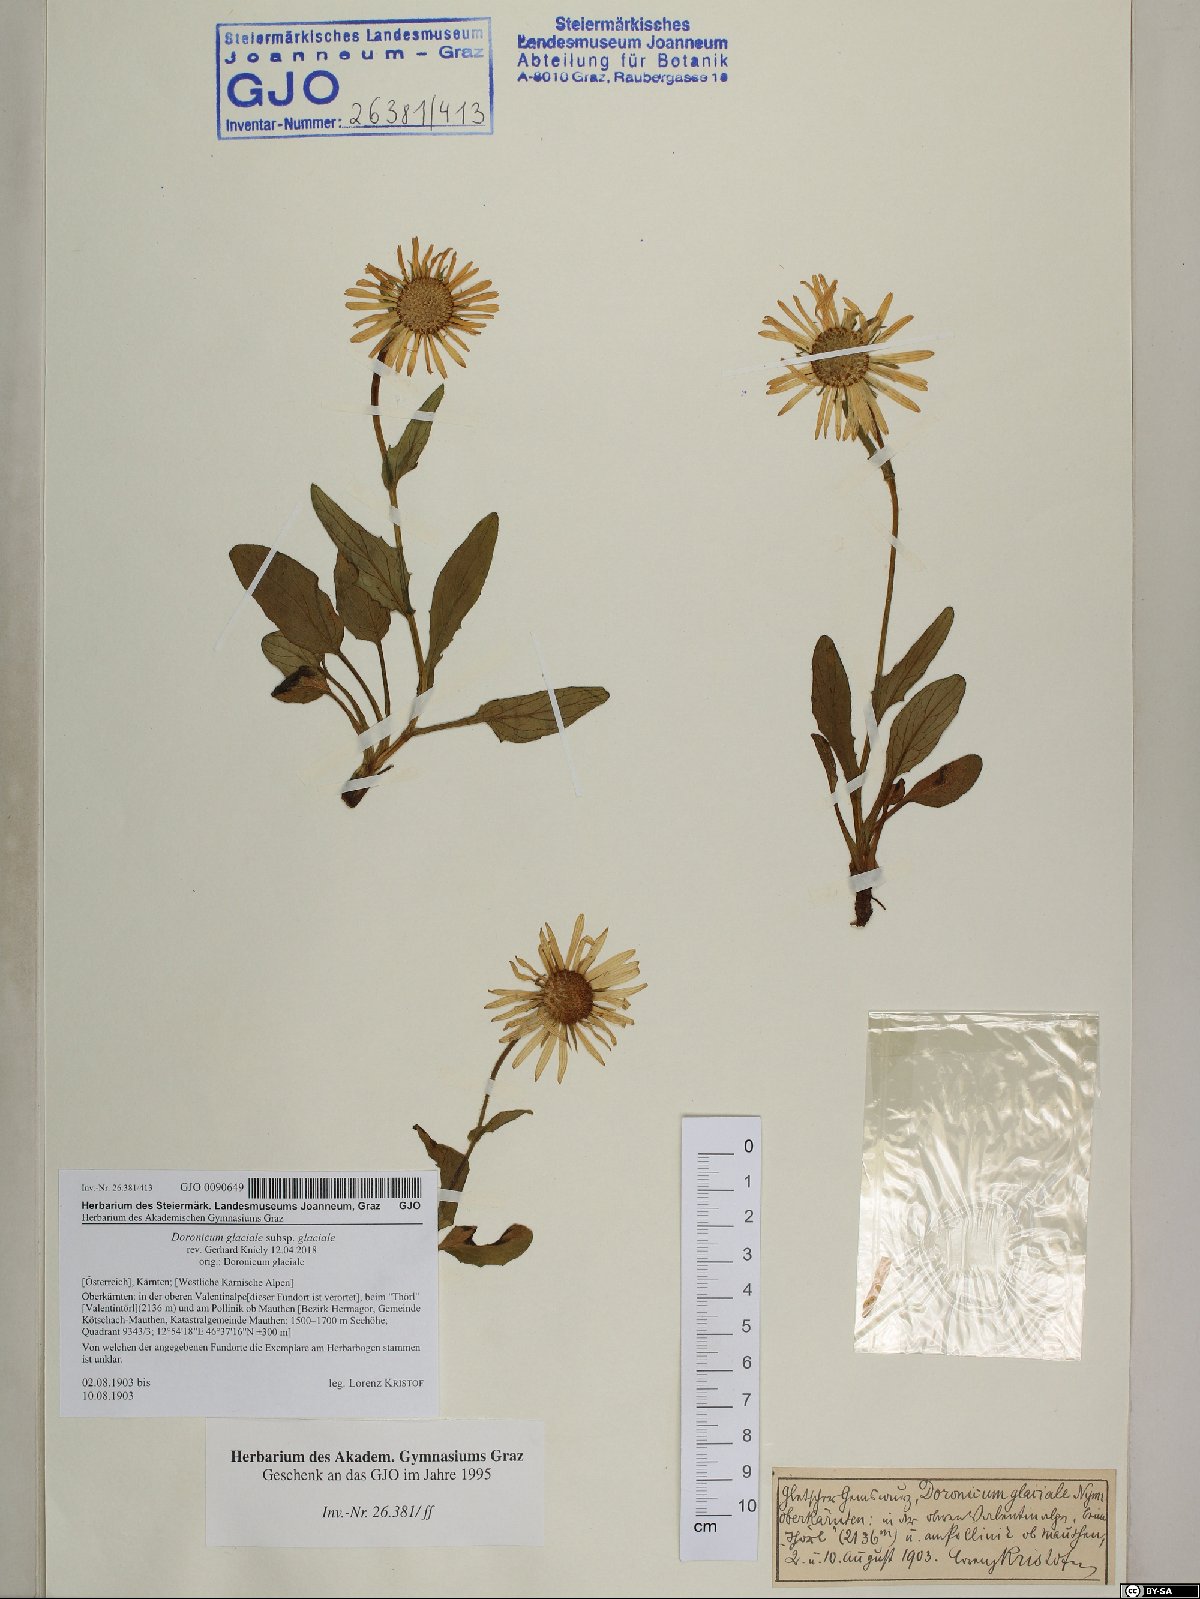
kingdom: Plantae
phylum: Tracheophyta
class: Magnoliopsida
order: Asterales
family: Asteraceae
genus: Doronicum
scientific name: Doronicum glaciale
